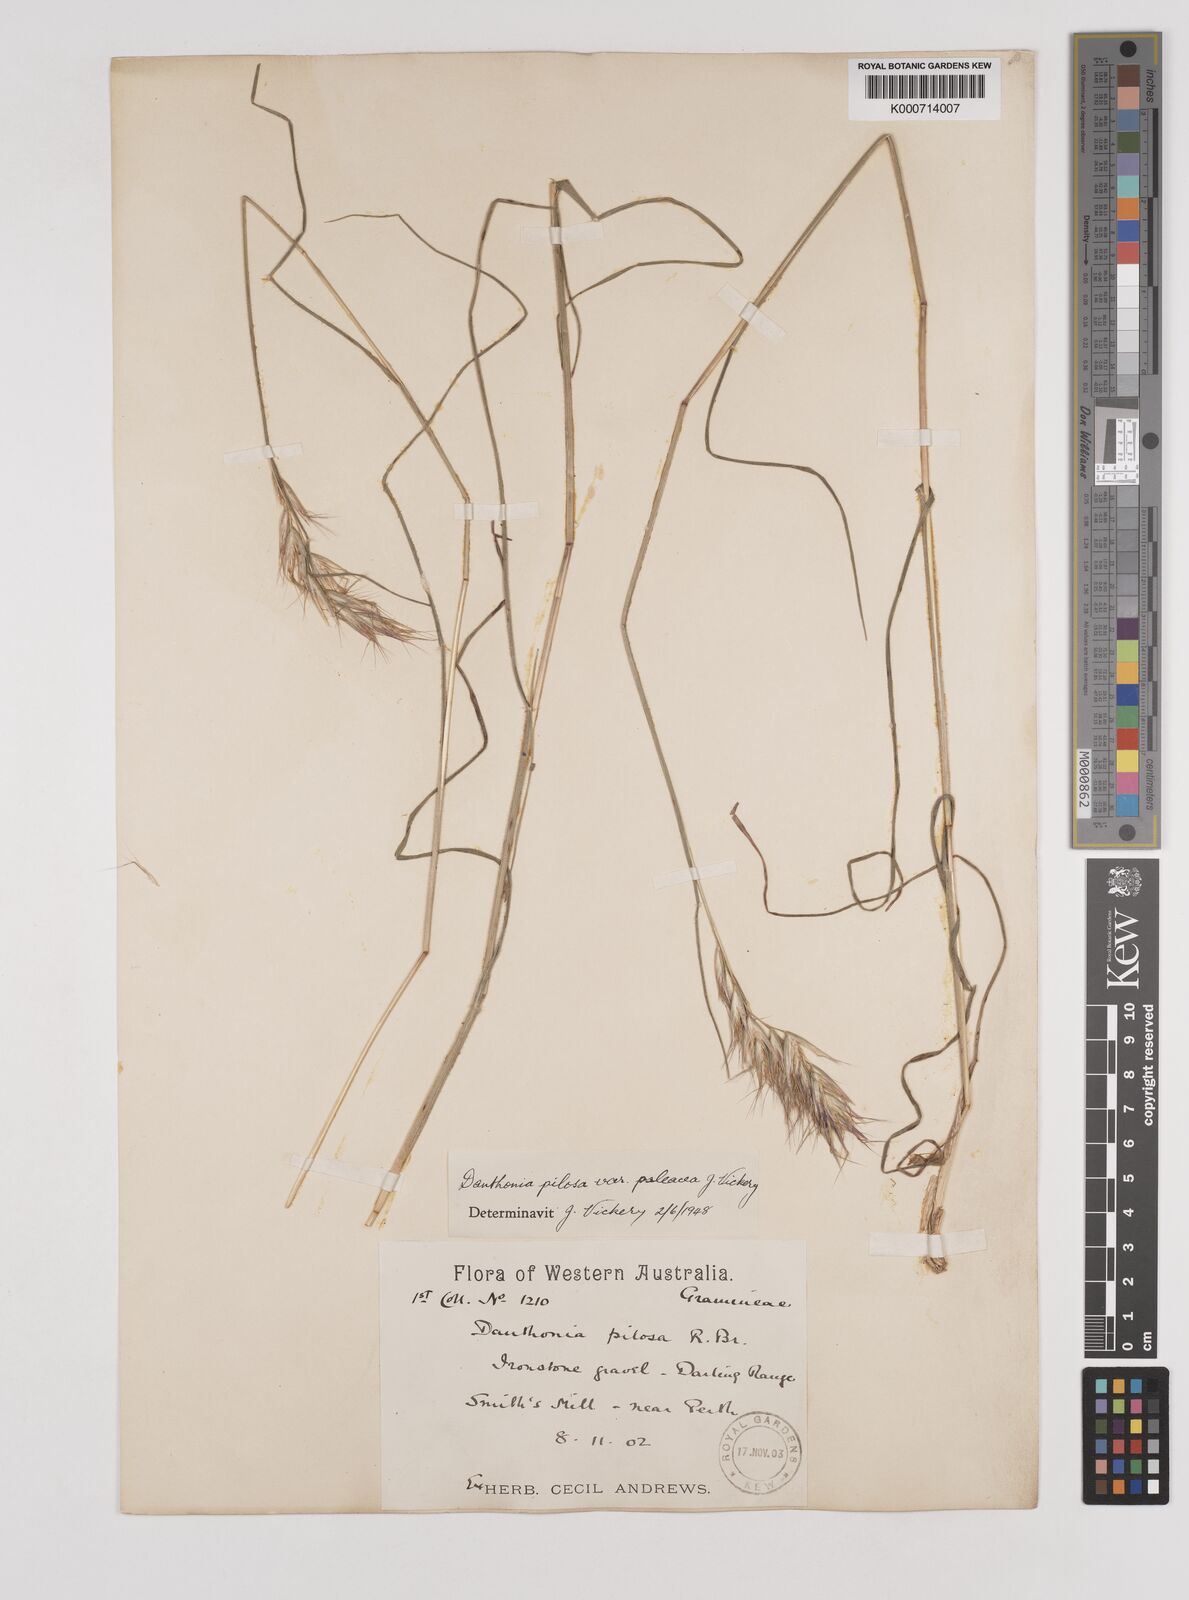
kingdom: Plantae
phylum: Tracheophyta
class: Liliopsida
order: Poales
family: Poaceae
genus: Rytidosperma
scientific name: Rytidosperma pilosum
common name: Hairy wallaby grass
